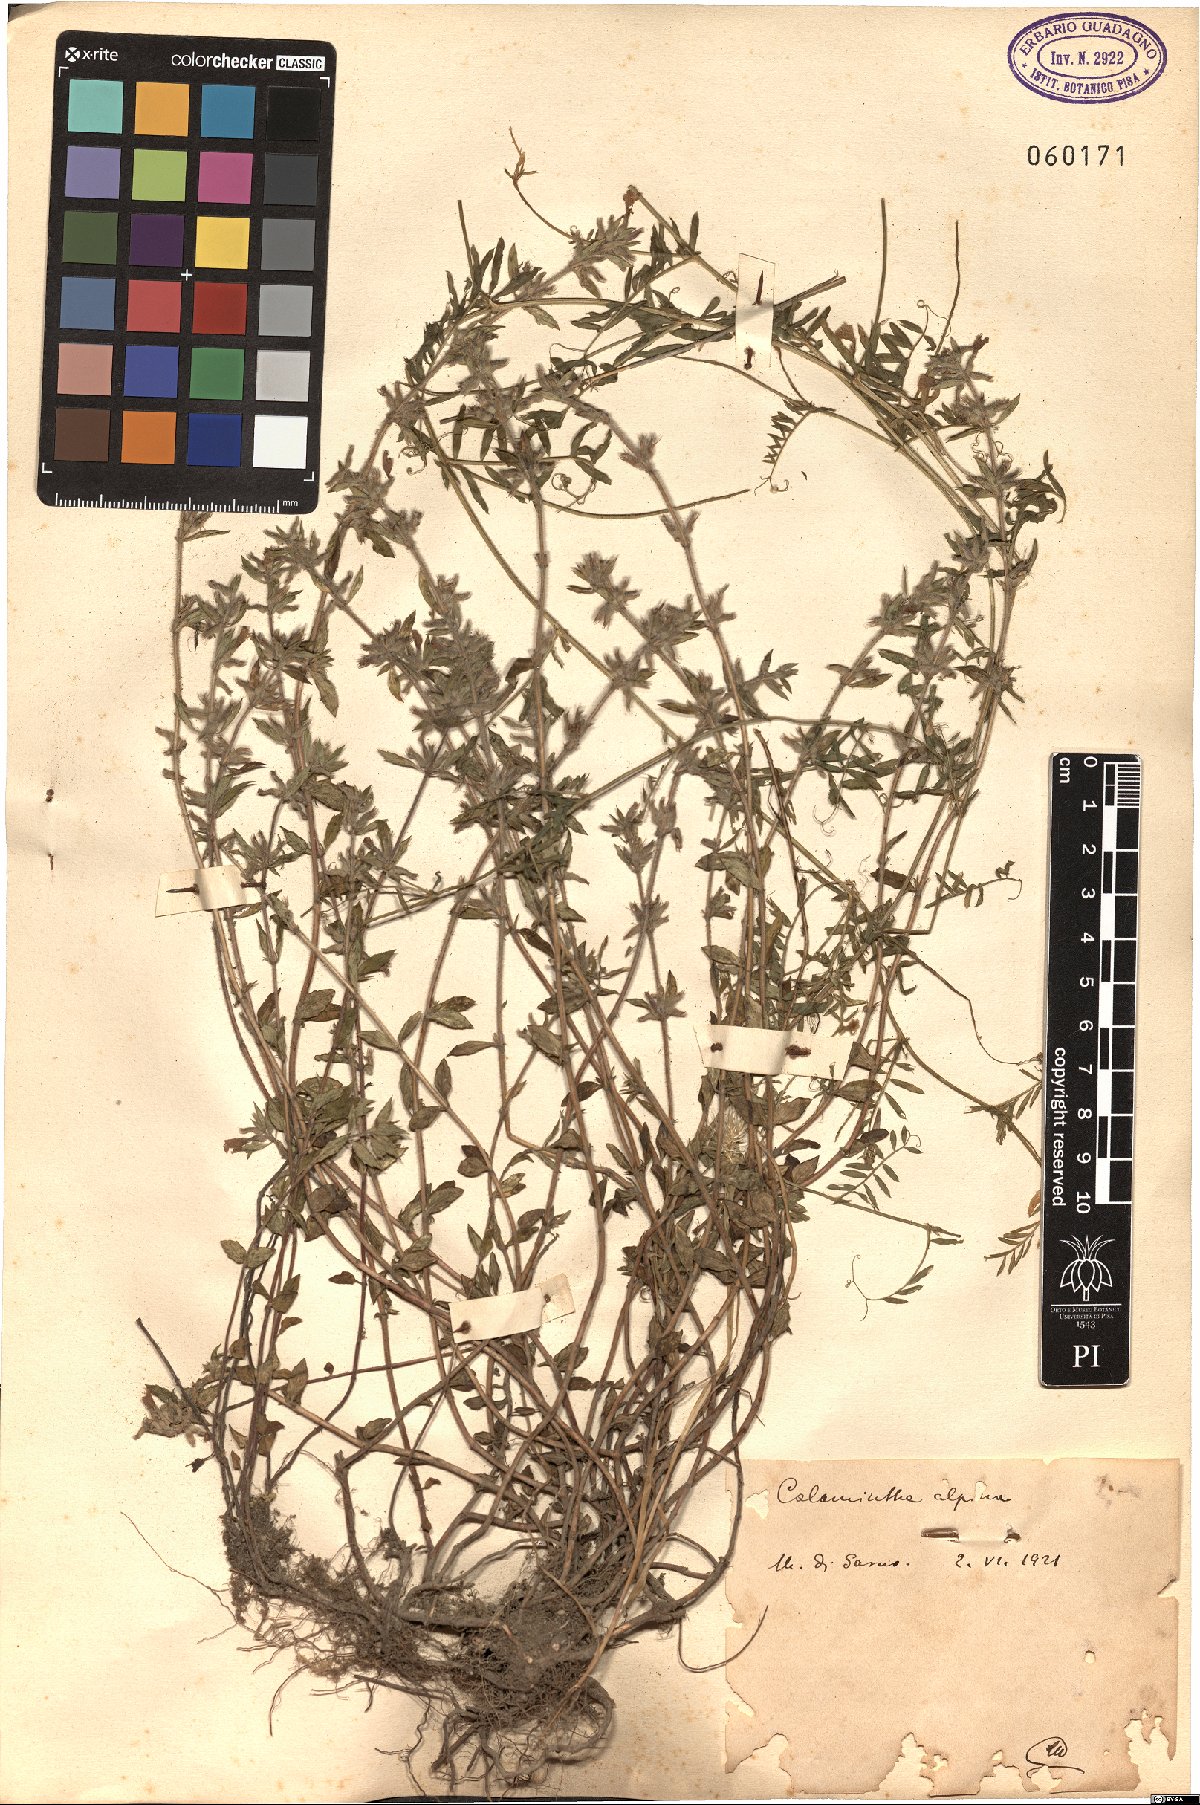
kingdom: Plantae
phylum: Tracheophyta
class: Magnoliopsida
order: Lamiales
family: Lamiaceae
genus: Clinopodium
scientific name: Clinopodium alpinum
